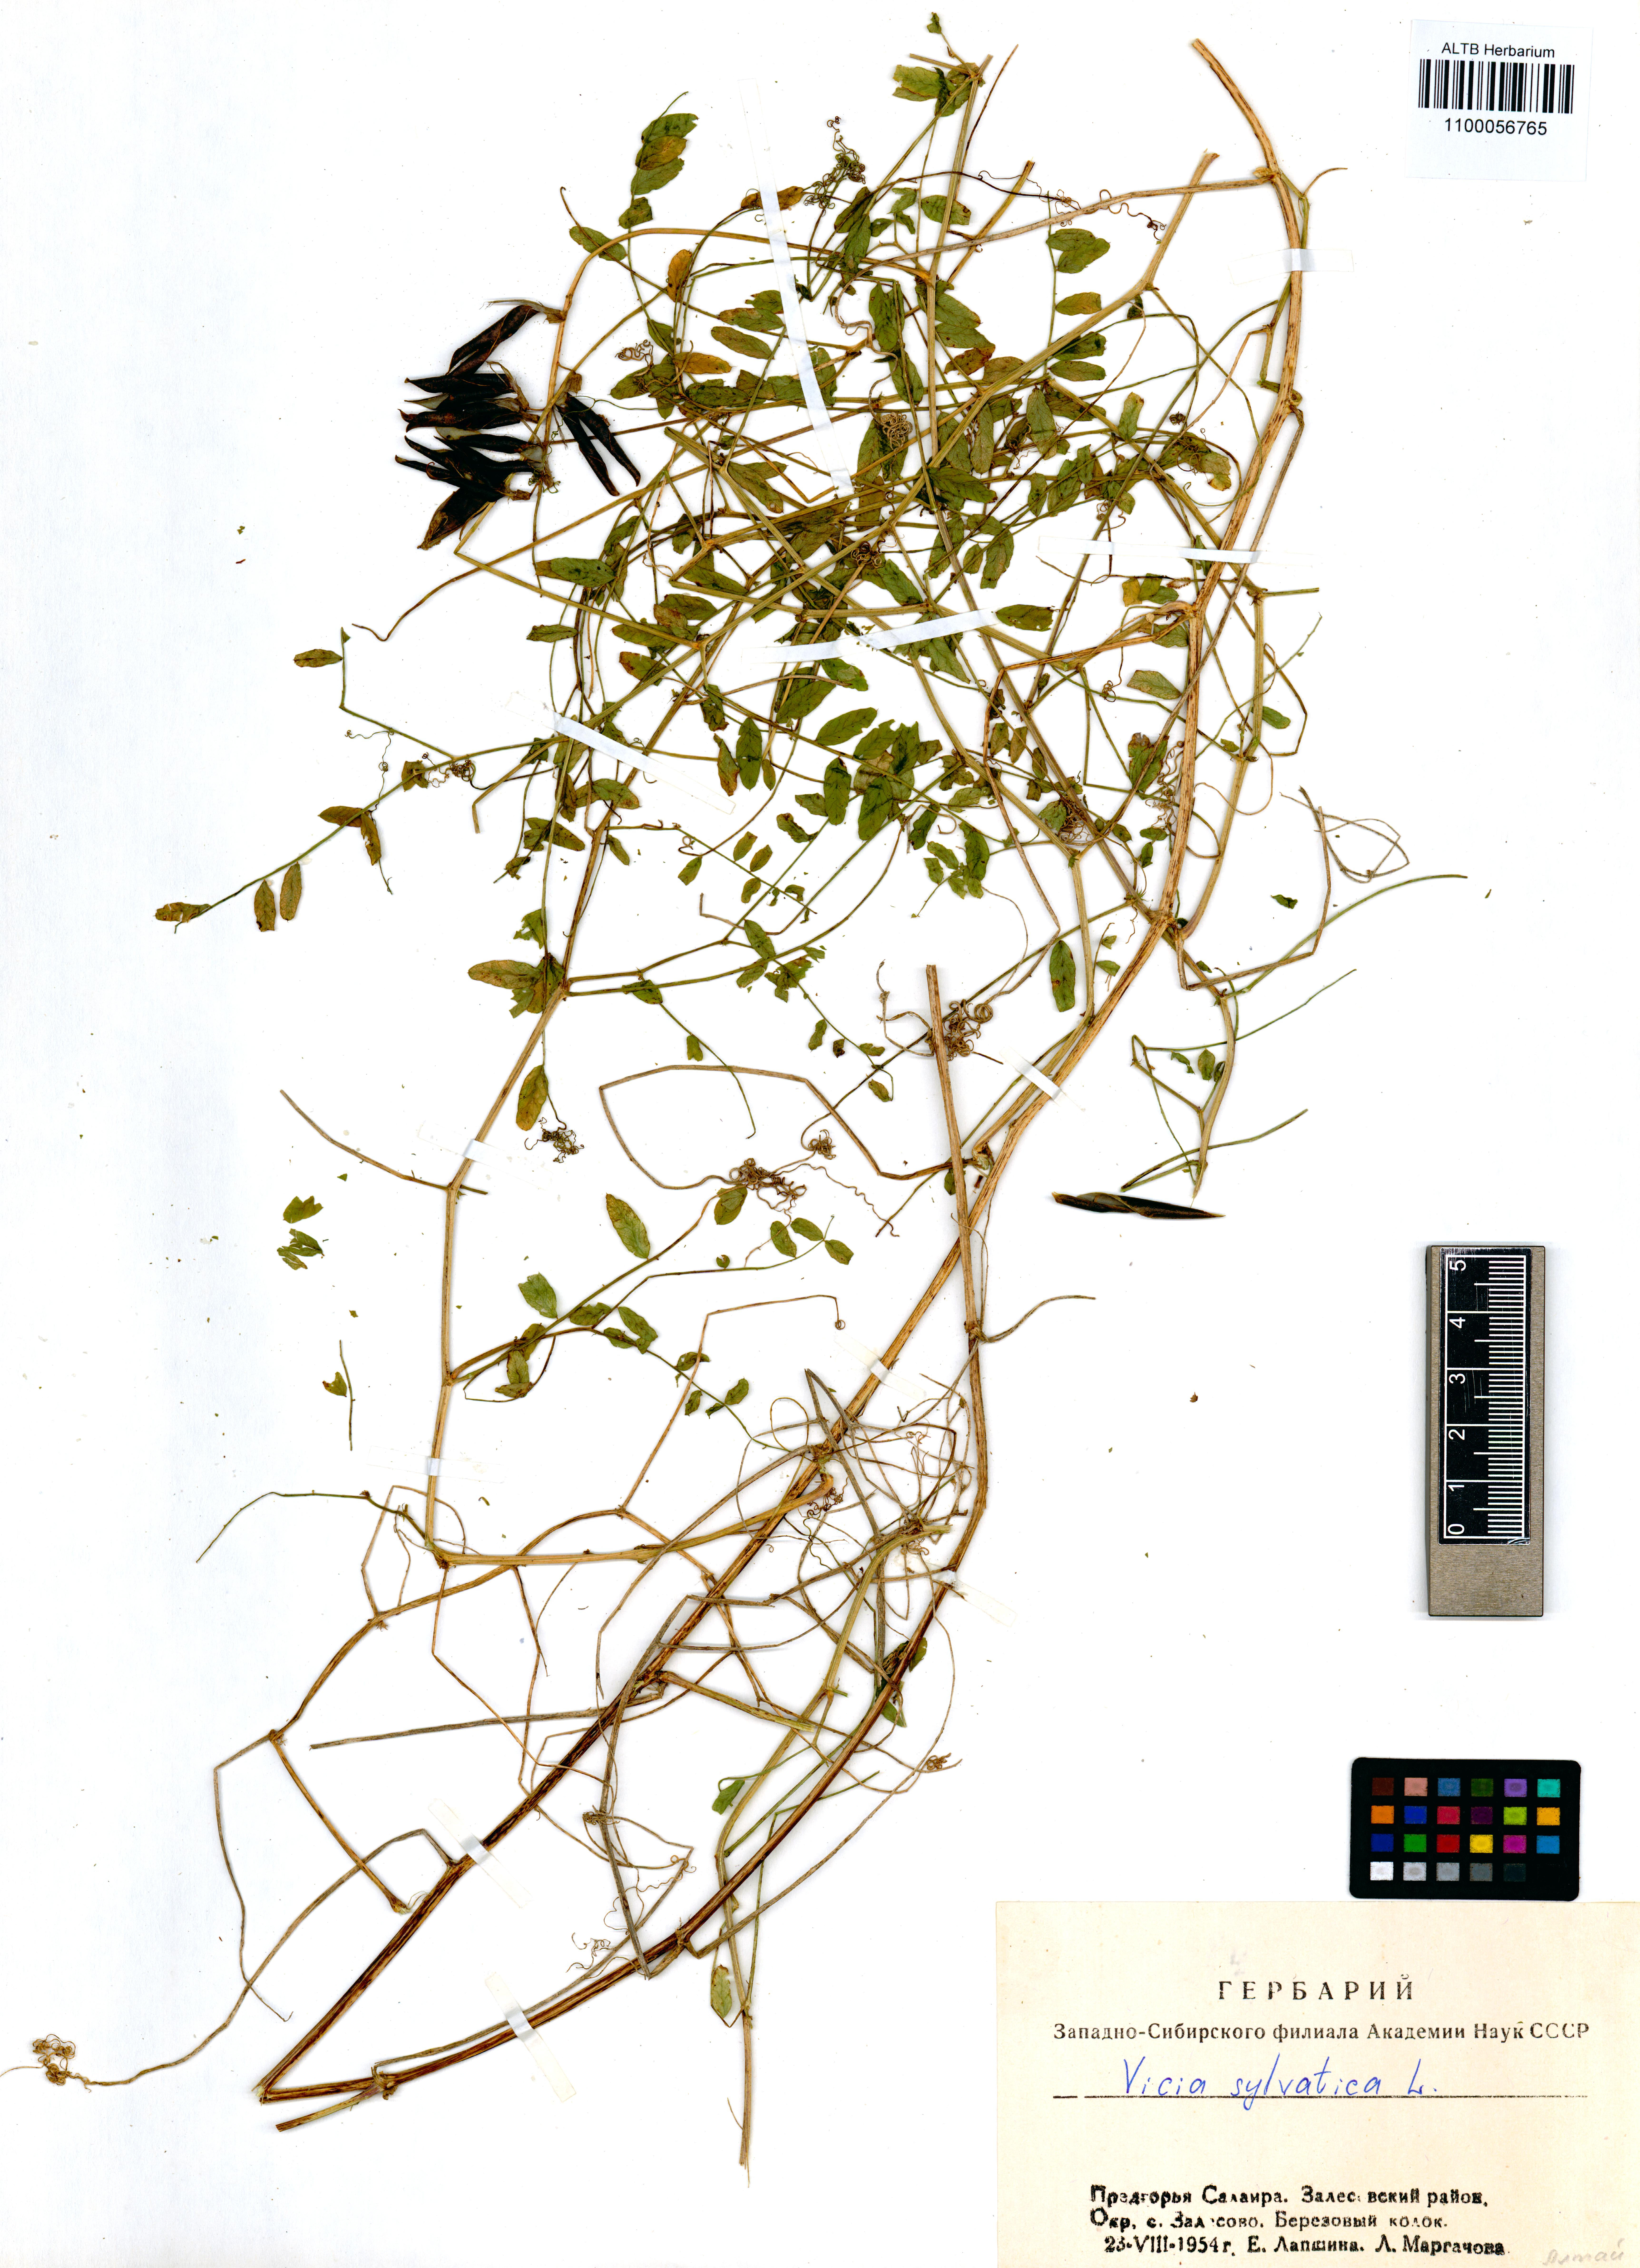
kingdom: Plantae
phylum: Tracheophyta
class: Magnoliopsida
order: Fabales
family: Fabaceae
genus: Vicia
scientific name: Vicia sylvatica
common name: Wood vetch
